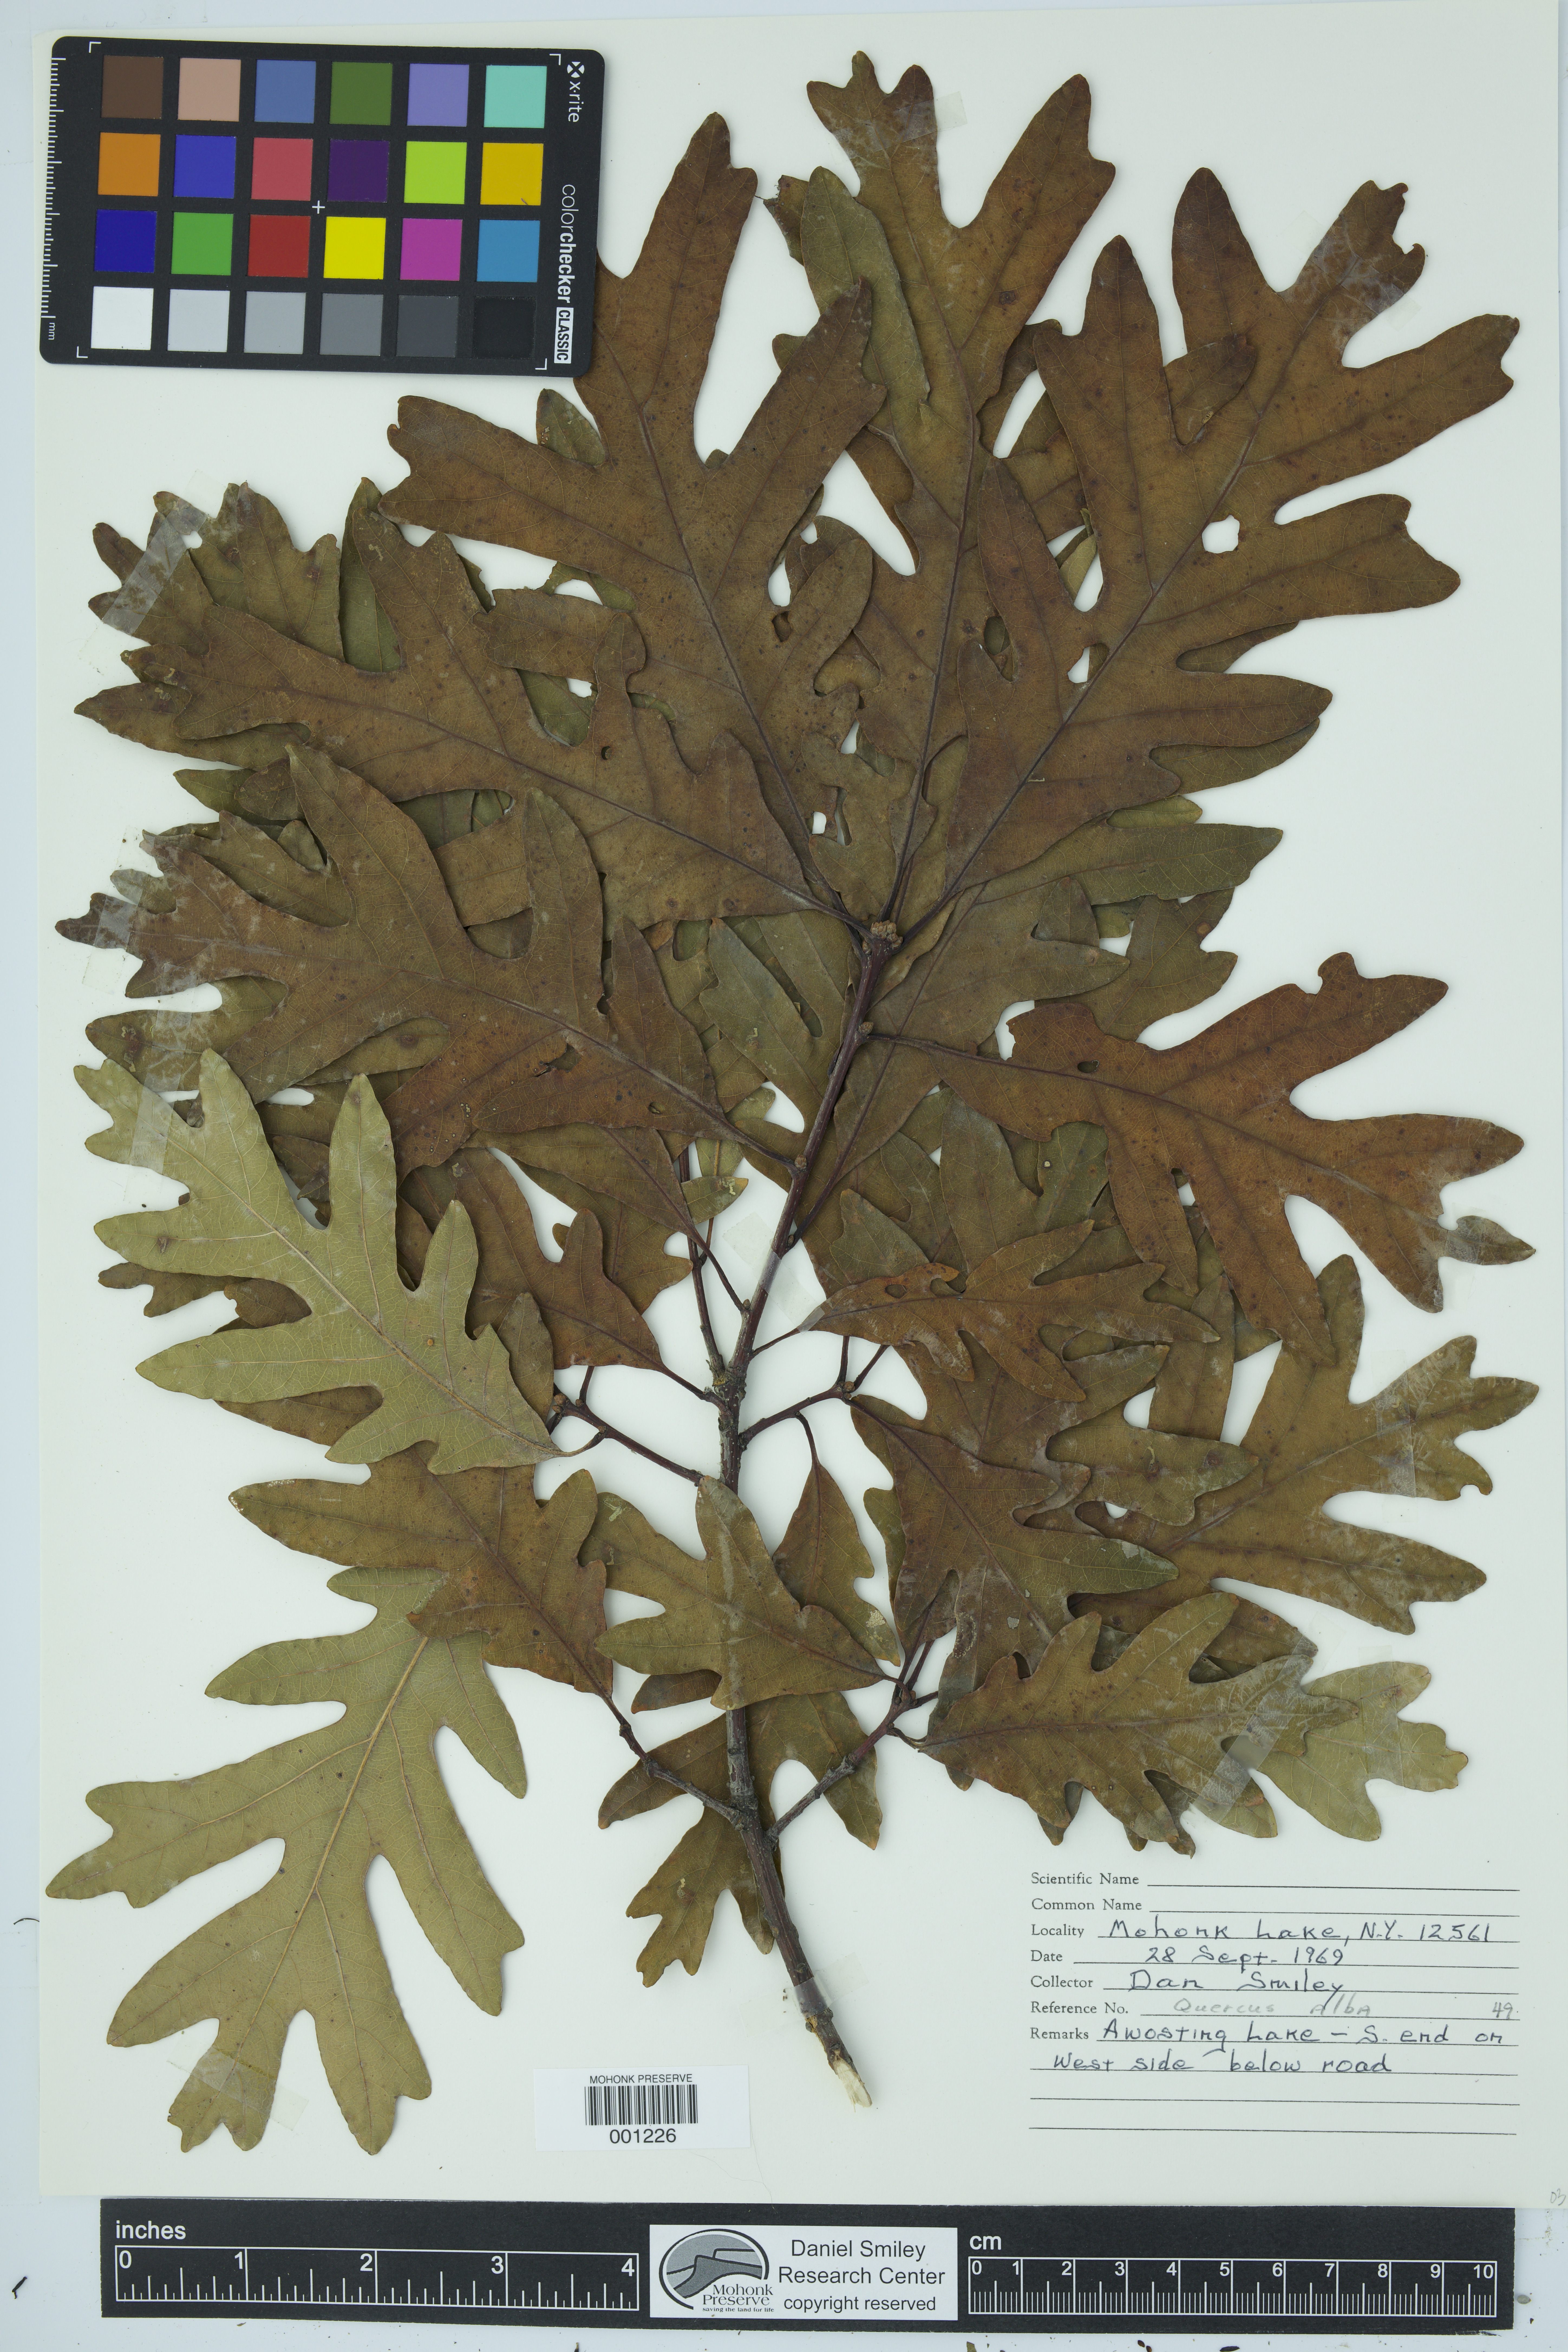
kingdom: Plantae
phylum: Tracheophyta
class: Magnoliopsida
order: Fagales
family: Fagaceae
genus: Quercus
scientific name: Quercus alba
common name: White oak
